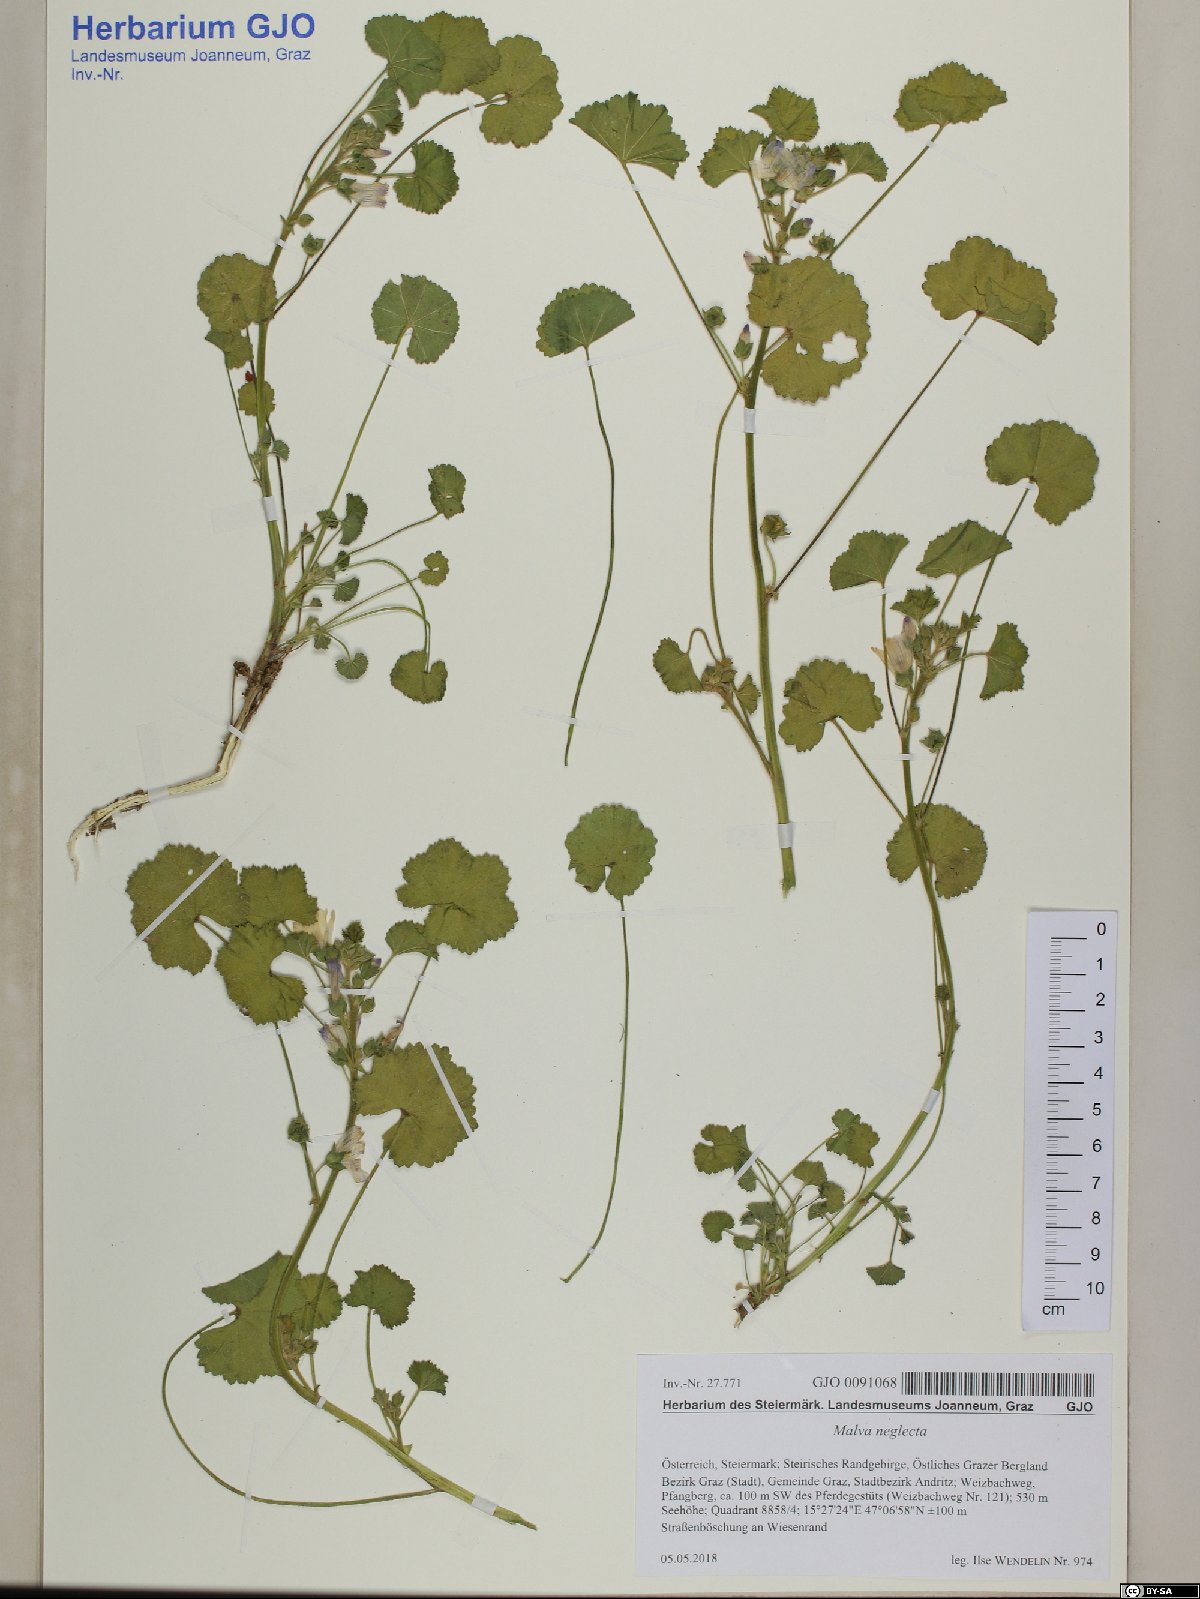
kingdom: Plantae
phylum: Tracheophyta
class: Magnoliopsida
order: Malvales
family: Malvaceae
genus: Malva
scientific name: Malva neglecta
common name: Common mallow
